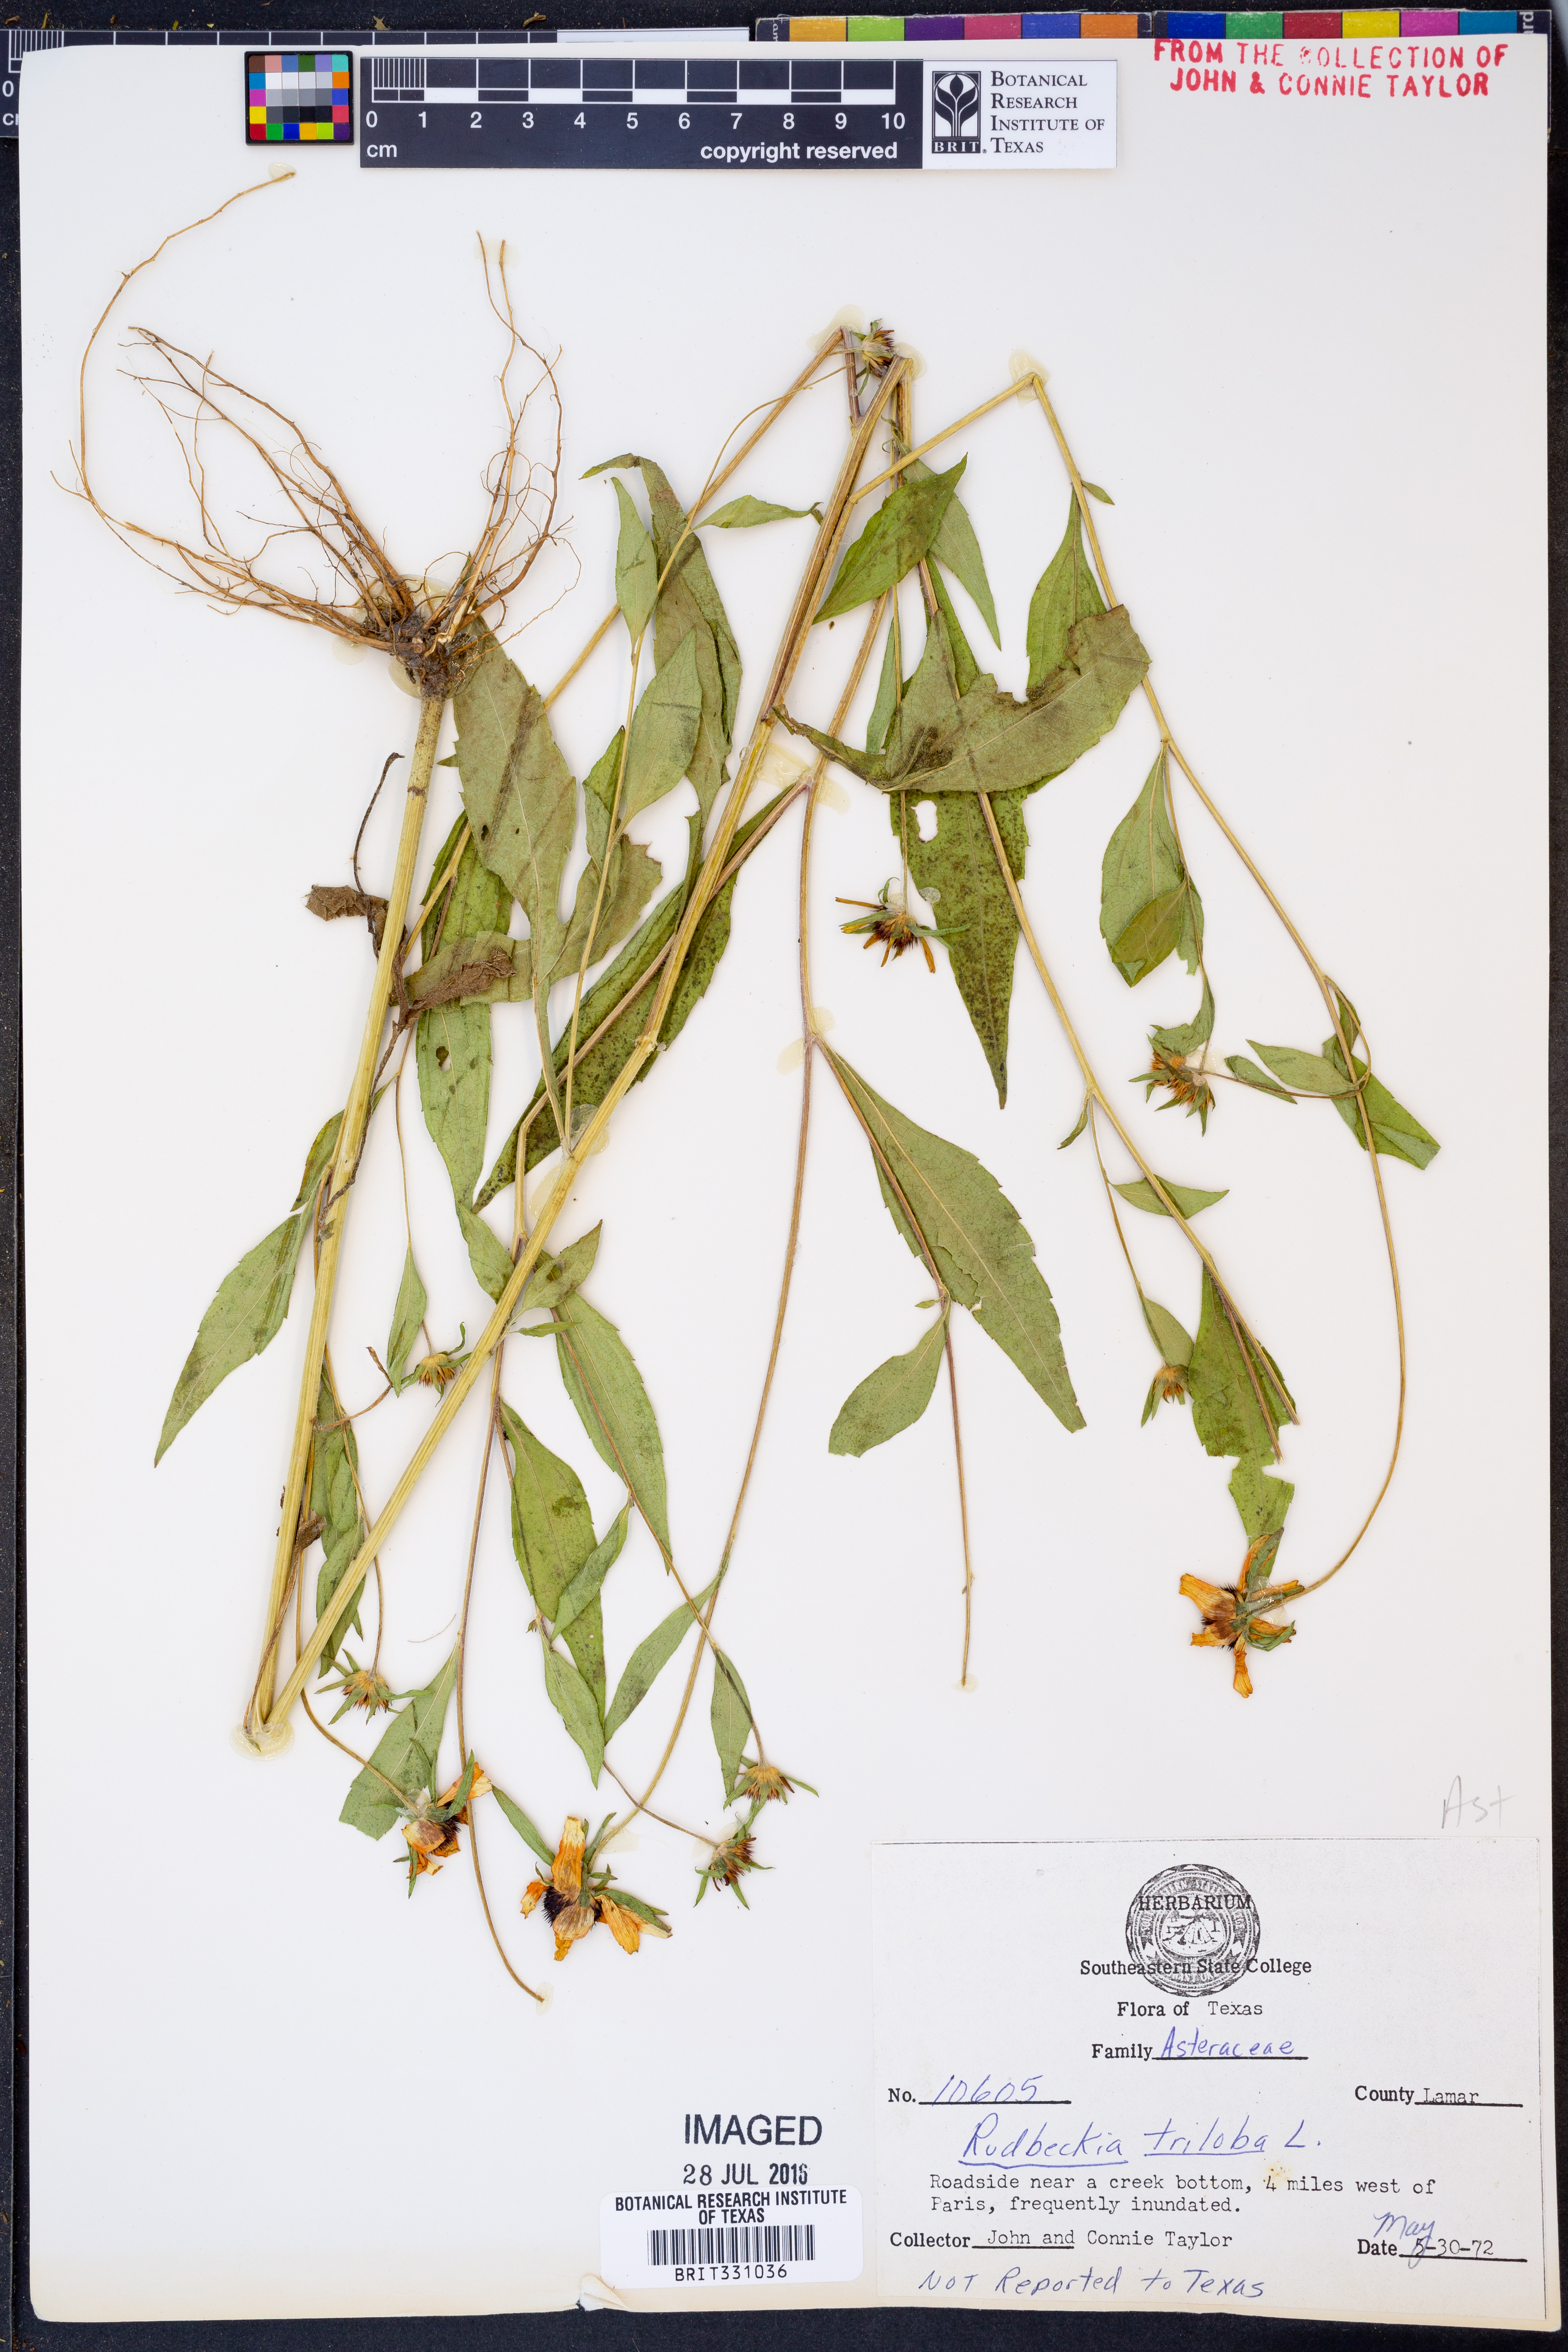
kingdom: Plantae
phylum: Tracheophyta
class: Magnoliopsida
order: Asterales
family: Asteraceae
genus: Rudbeckia
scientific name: Rudbeckia triloba
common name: Thin-leaved coneflower
